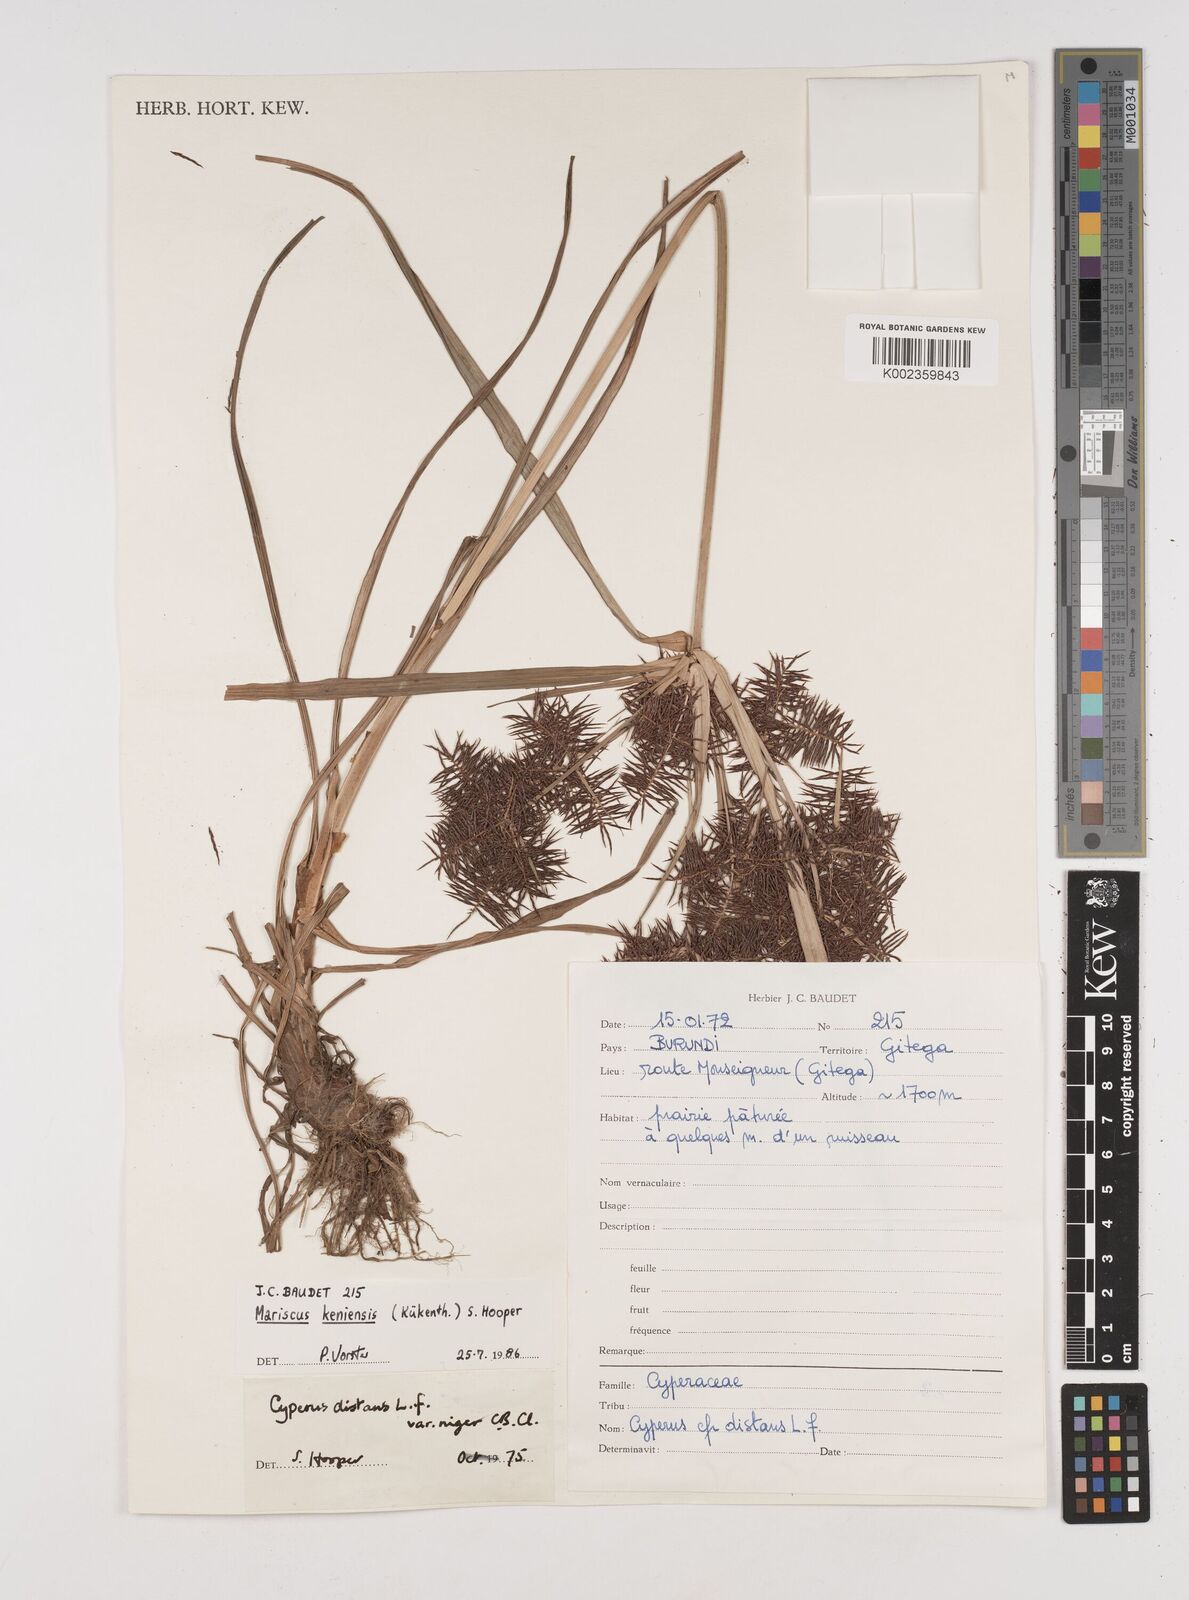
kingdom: Plantae
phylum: Tracheophyta
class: Liliopsida
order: Poales
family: Cyperaceae
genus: Cyperus
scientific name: Cyperus distans
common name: Slender cyperus
